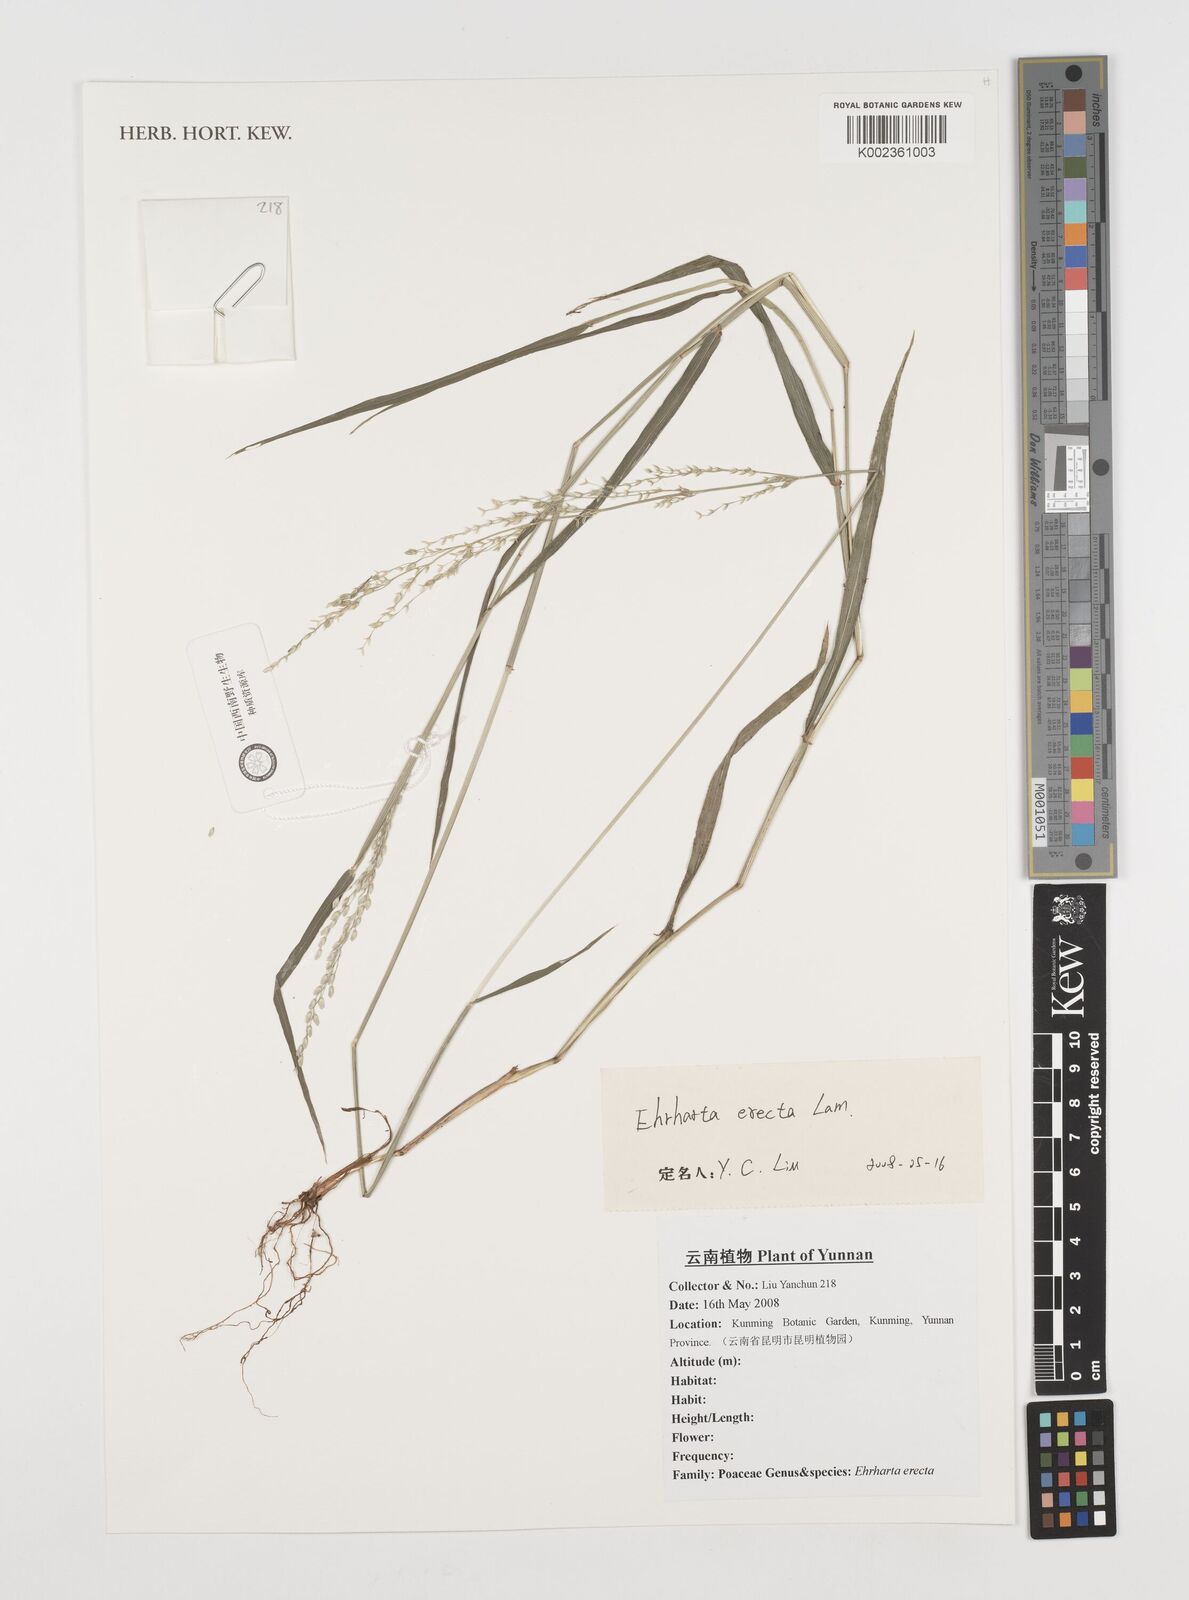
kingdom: Plantae
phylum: Tracheophyta
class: Liliopsida
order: Poales
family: Poaceae
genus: Ehrharta
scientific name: Ehrharta erecta
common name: Panic veldtgrass
